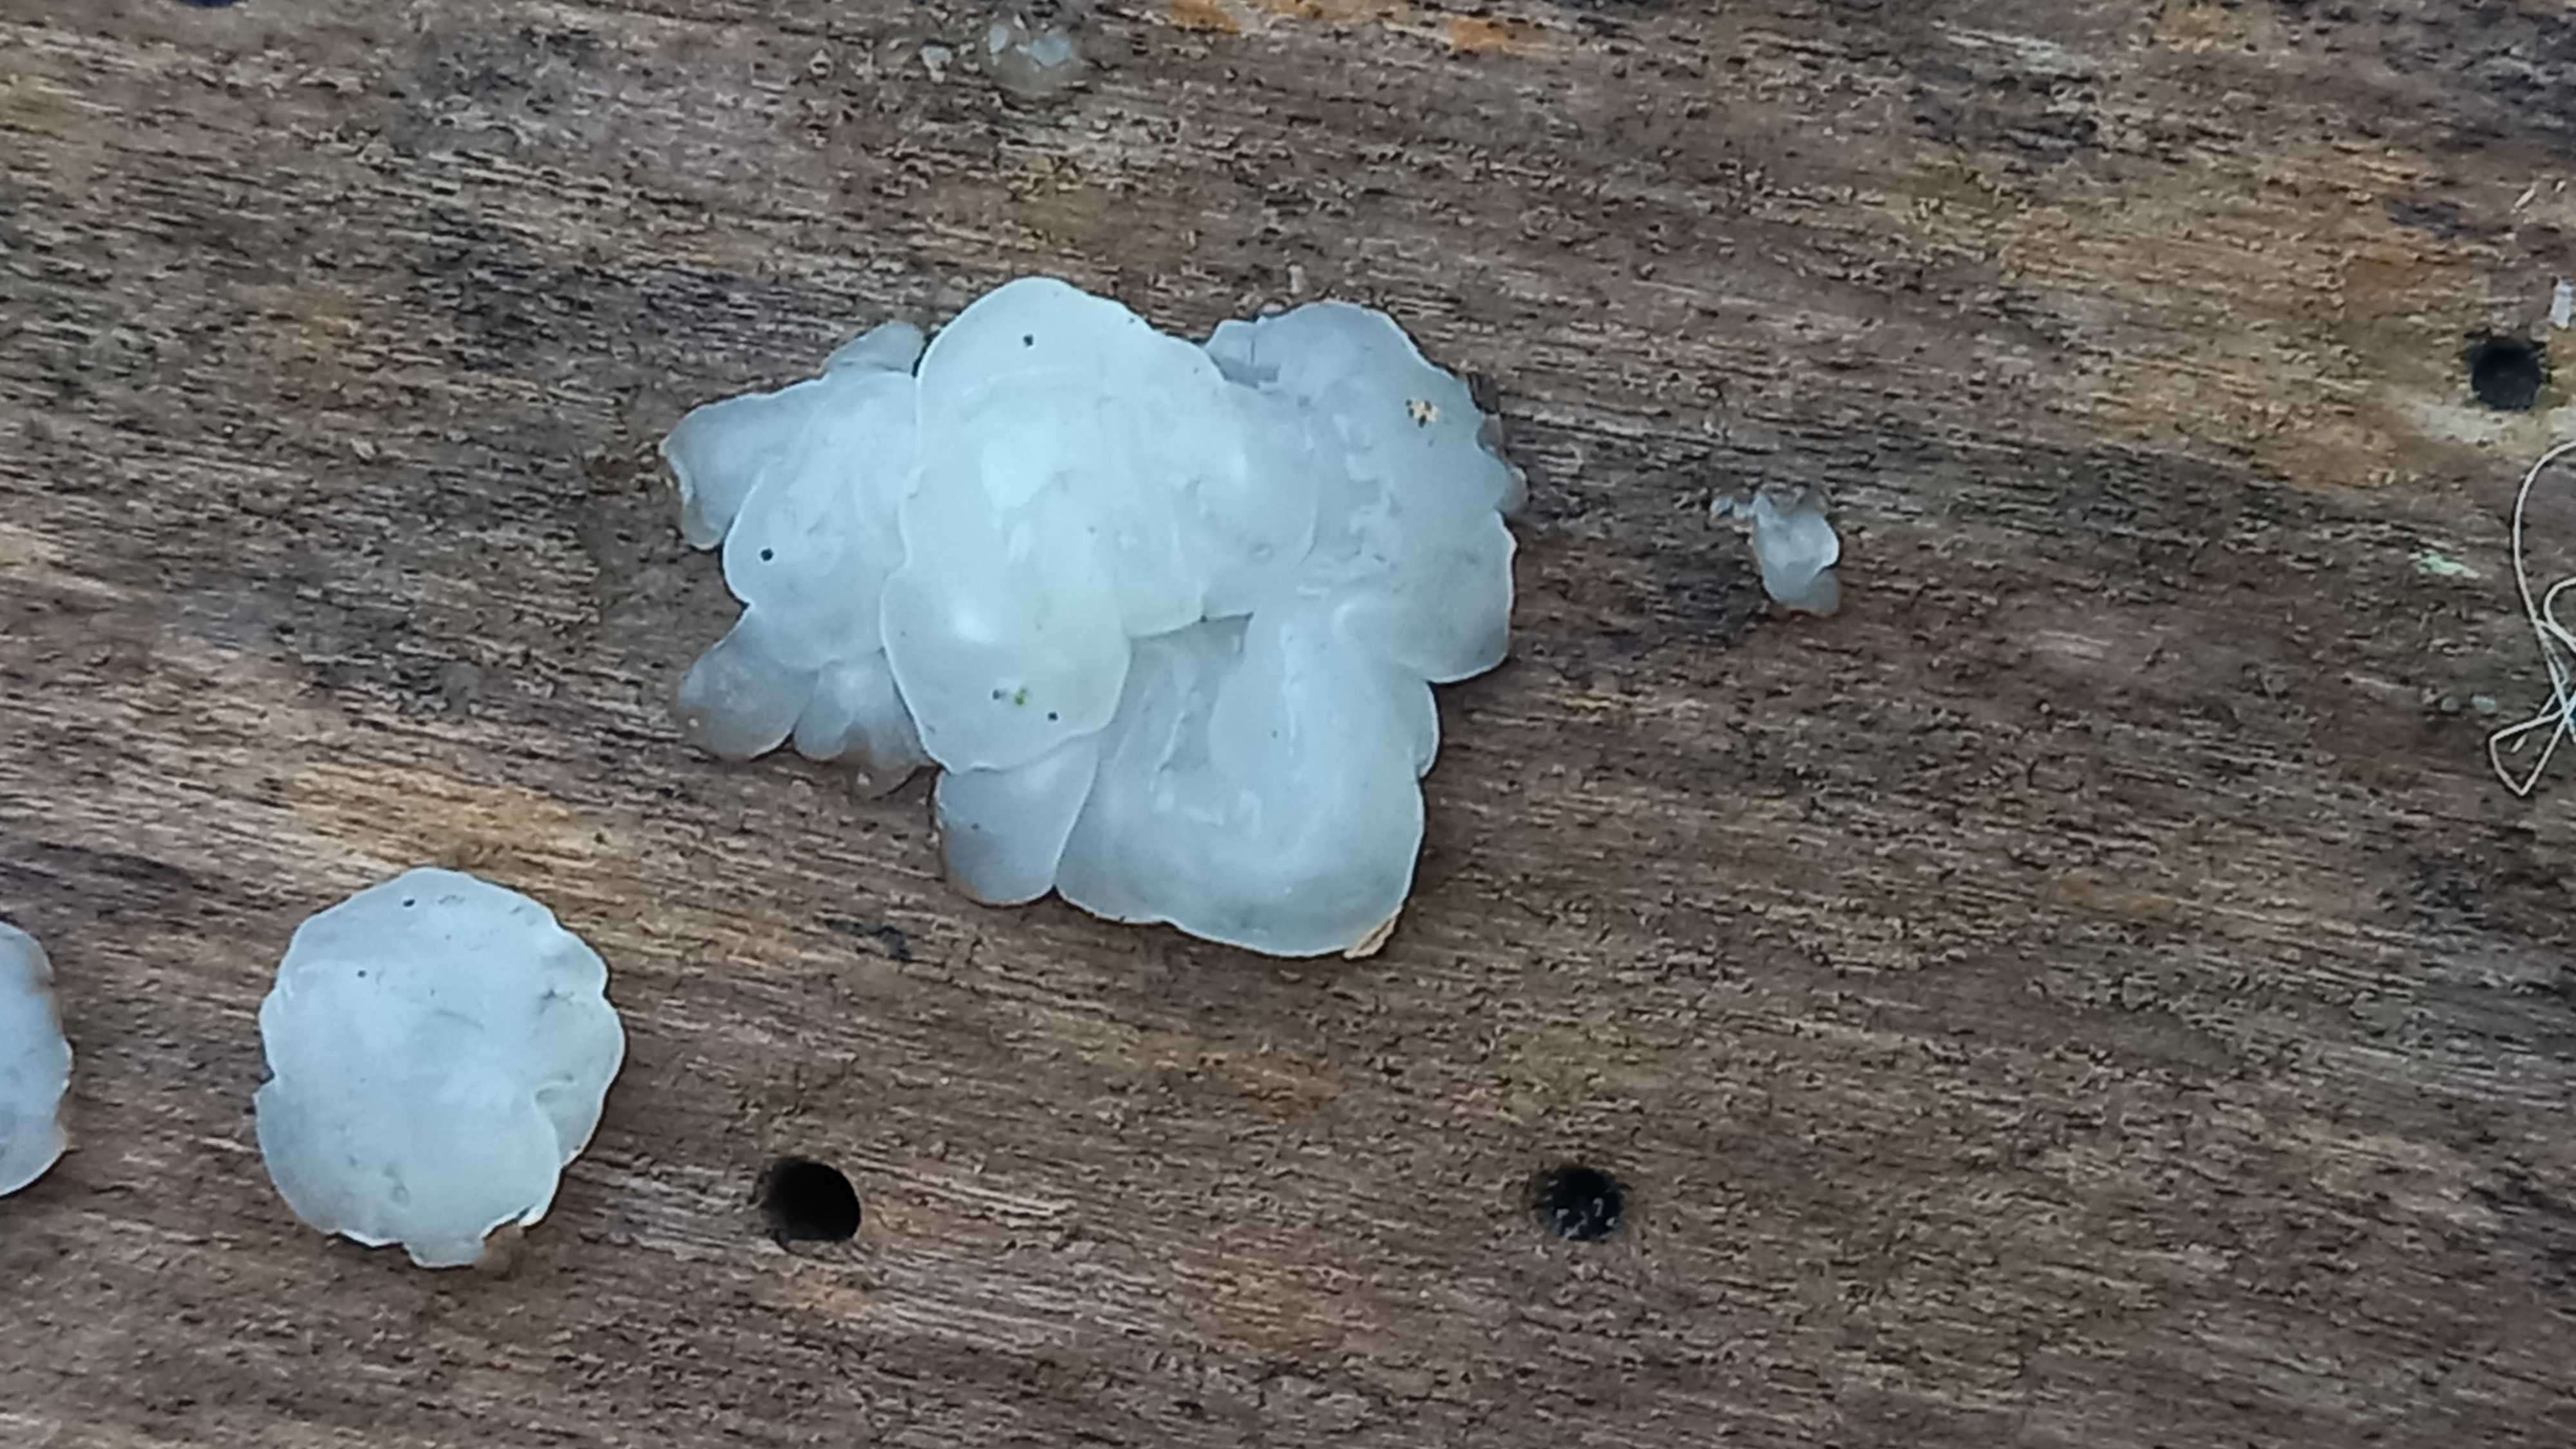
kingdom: Fungi
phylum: Basidiomycota
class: Agaricomycetes
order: Auriculariales
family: Hyaloriaceae
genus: Myxarium
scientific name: Myxarium nucleatum
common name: klar bævretop
